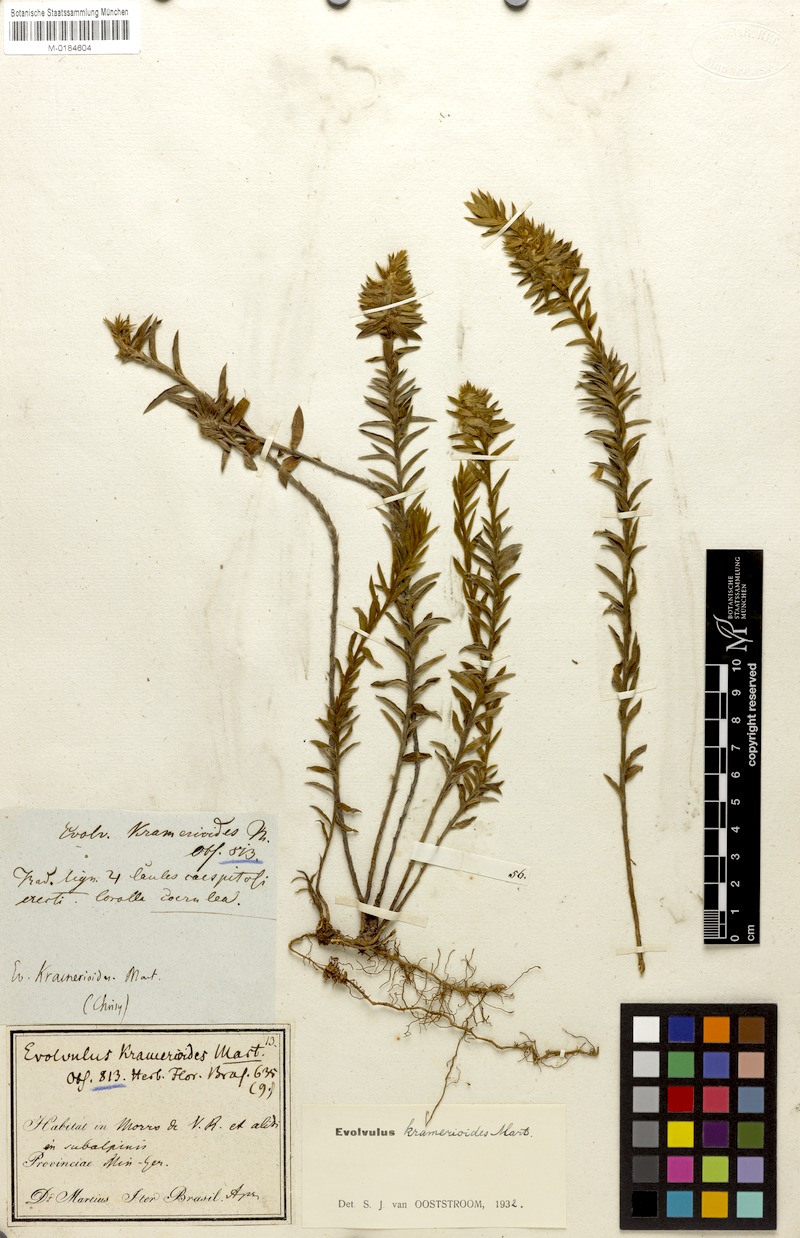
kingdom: Plantae
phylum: Tracheophyta
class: Magnoliopsida
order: Solanales
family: Convolvulaceae
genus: Evolvulus
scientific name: Evolvulus kramerioides
